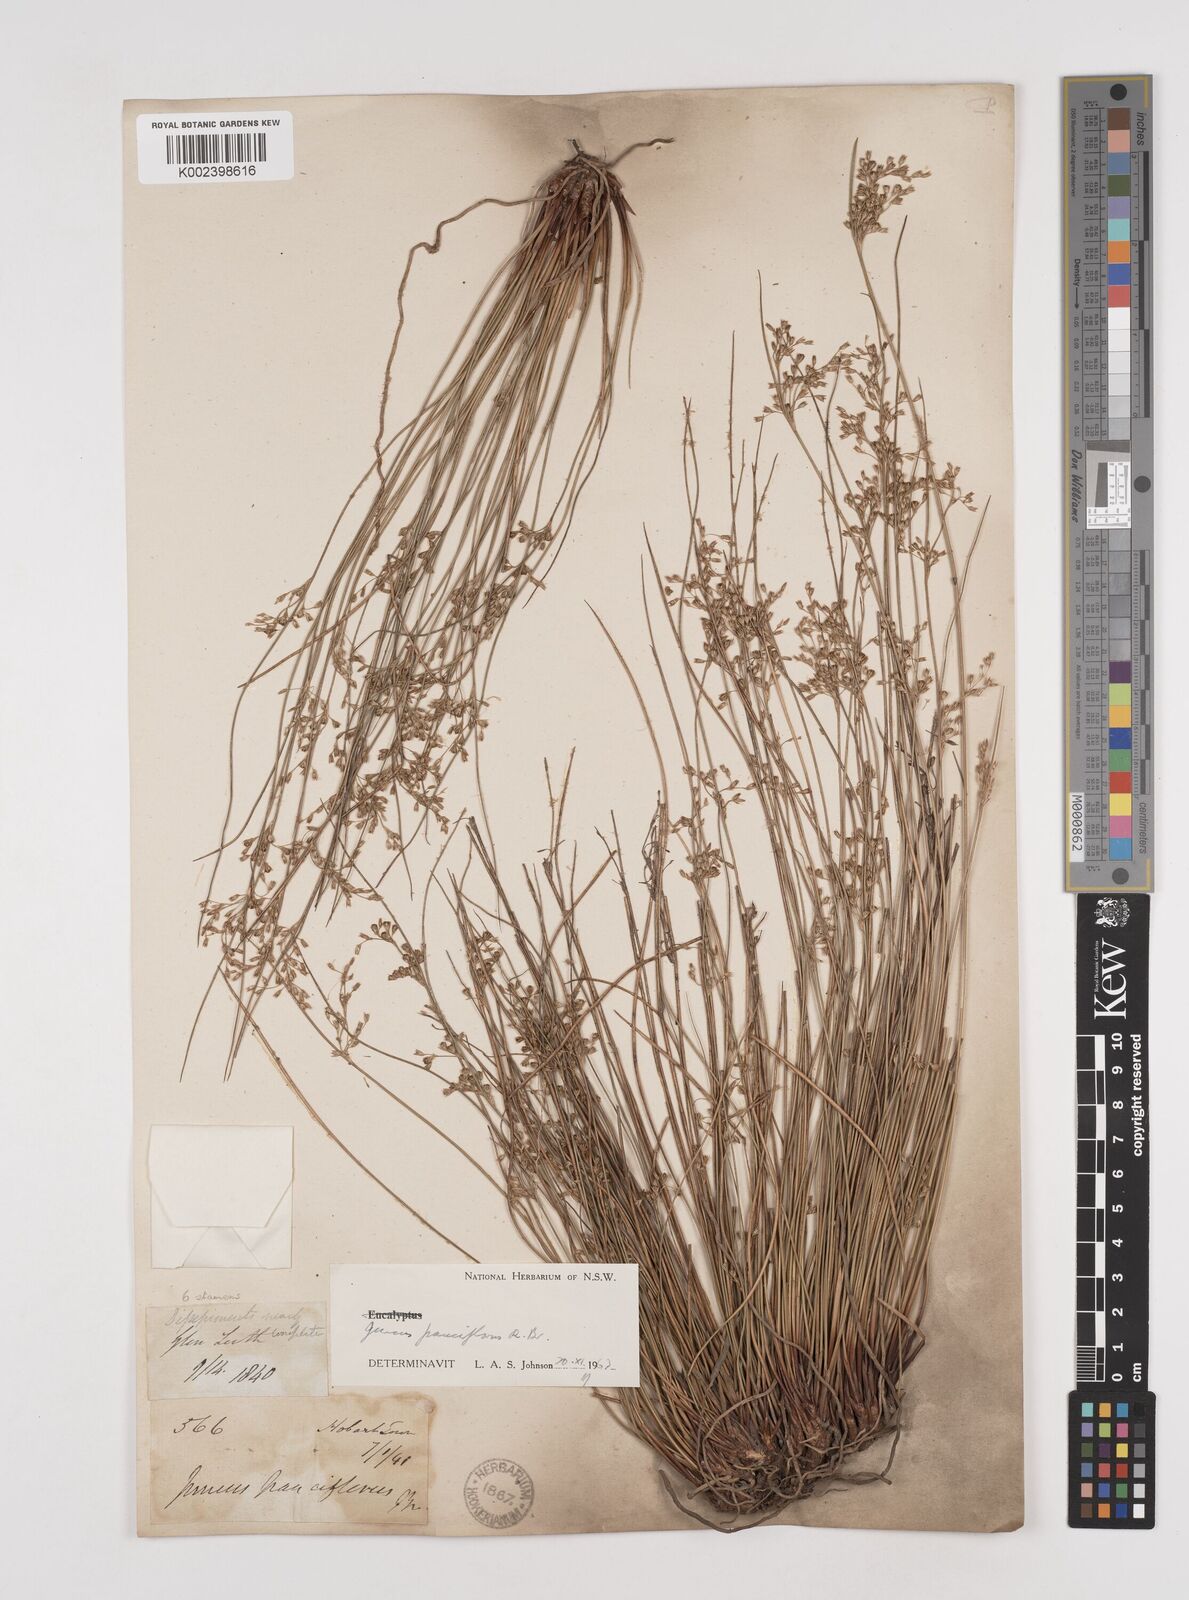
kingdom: Plantae
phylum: Tracheophyta
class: Liliopsida
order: Poales
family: Juncaceae
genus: Juncus
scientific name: Juncus pauciflorus
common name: Loose-flowered rush
